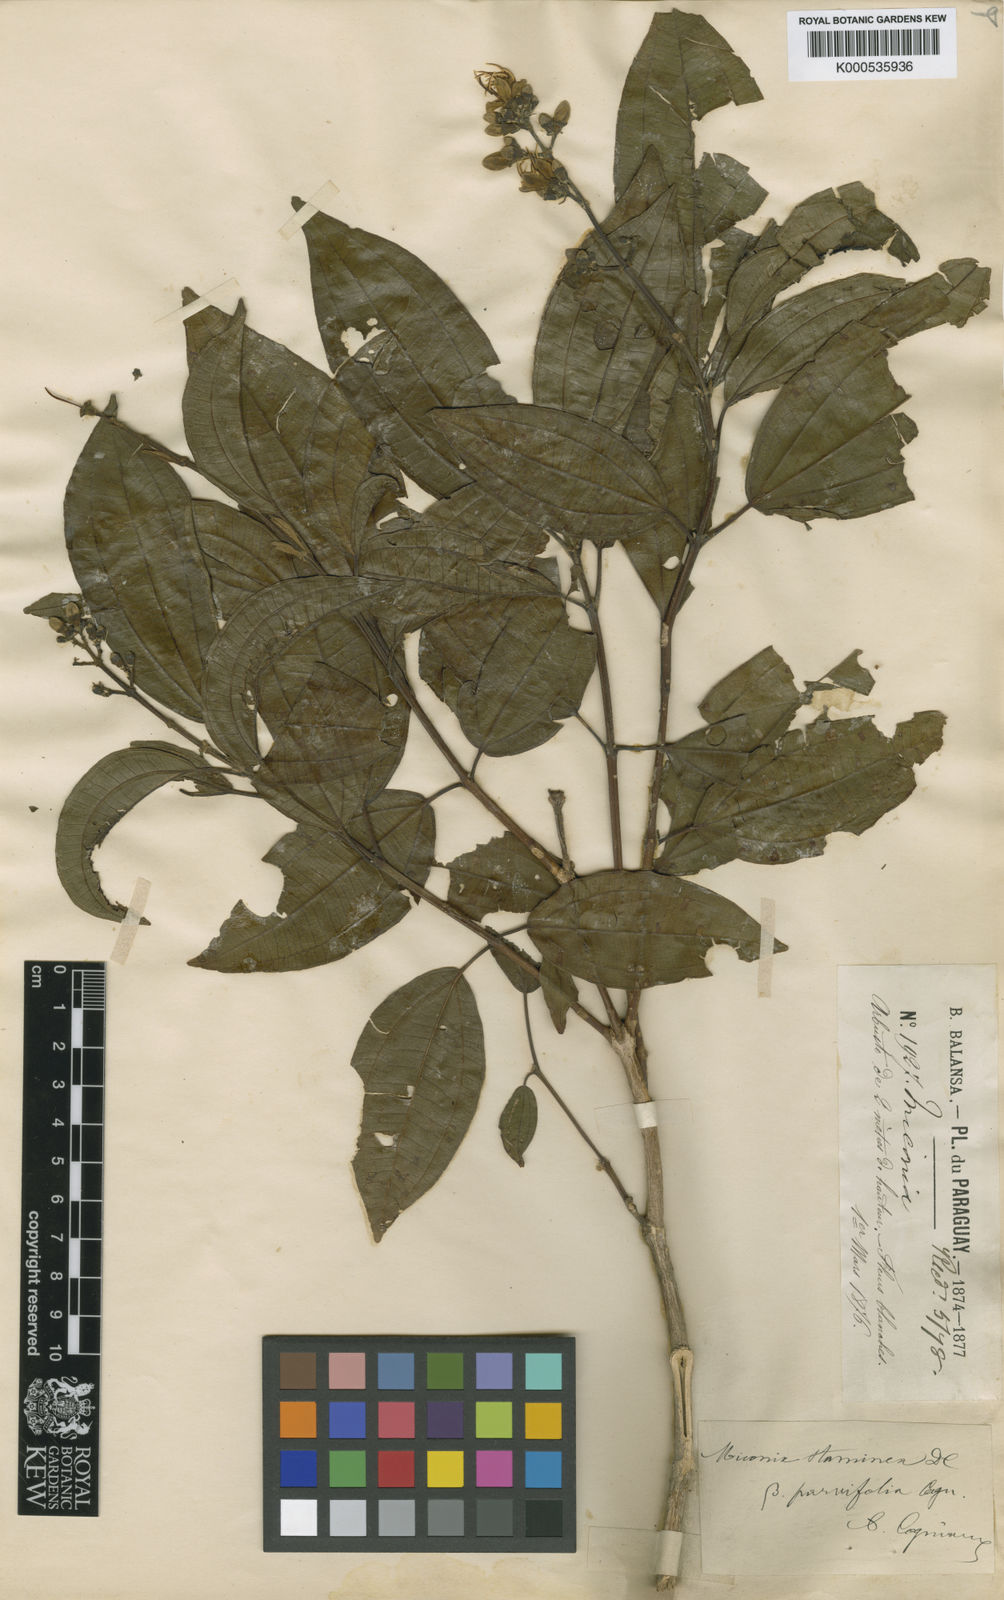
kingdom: Plantae
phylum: Tracheophyta
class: Magnoliopsida
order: Myrtales
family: Melastomataceae
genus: Miconia
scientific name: Miconia staminea
